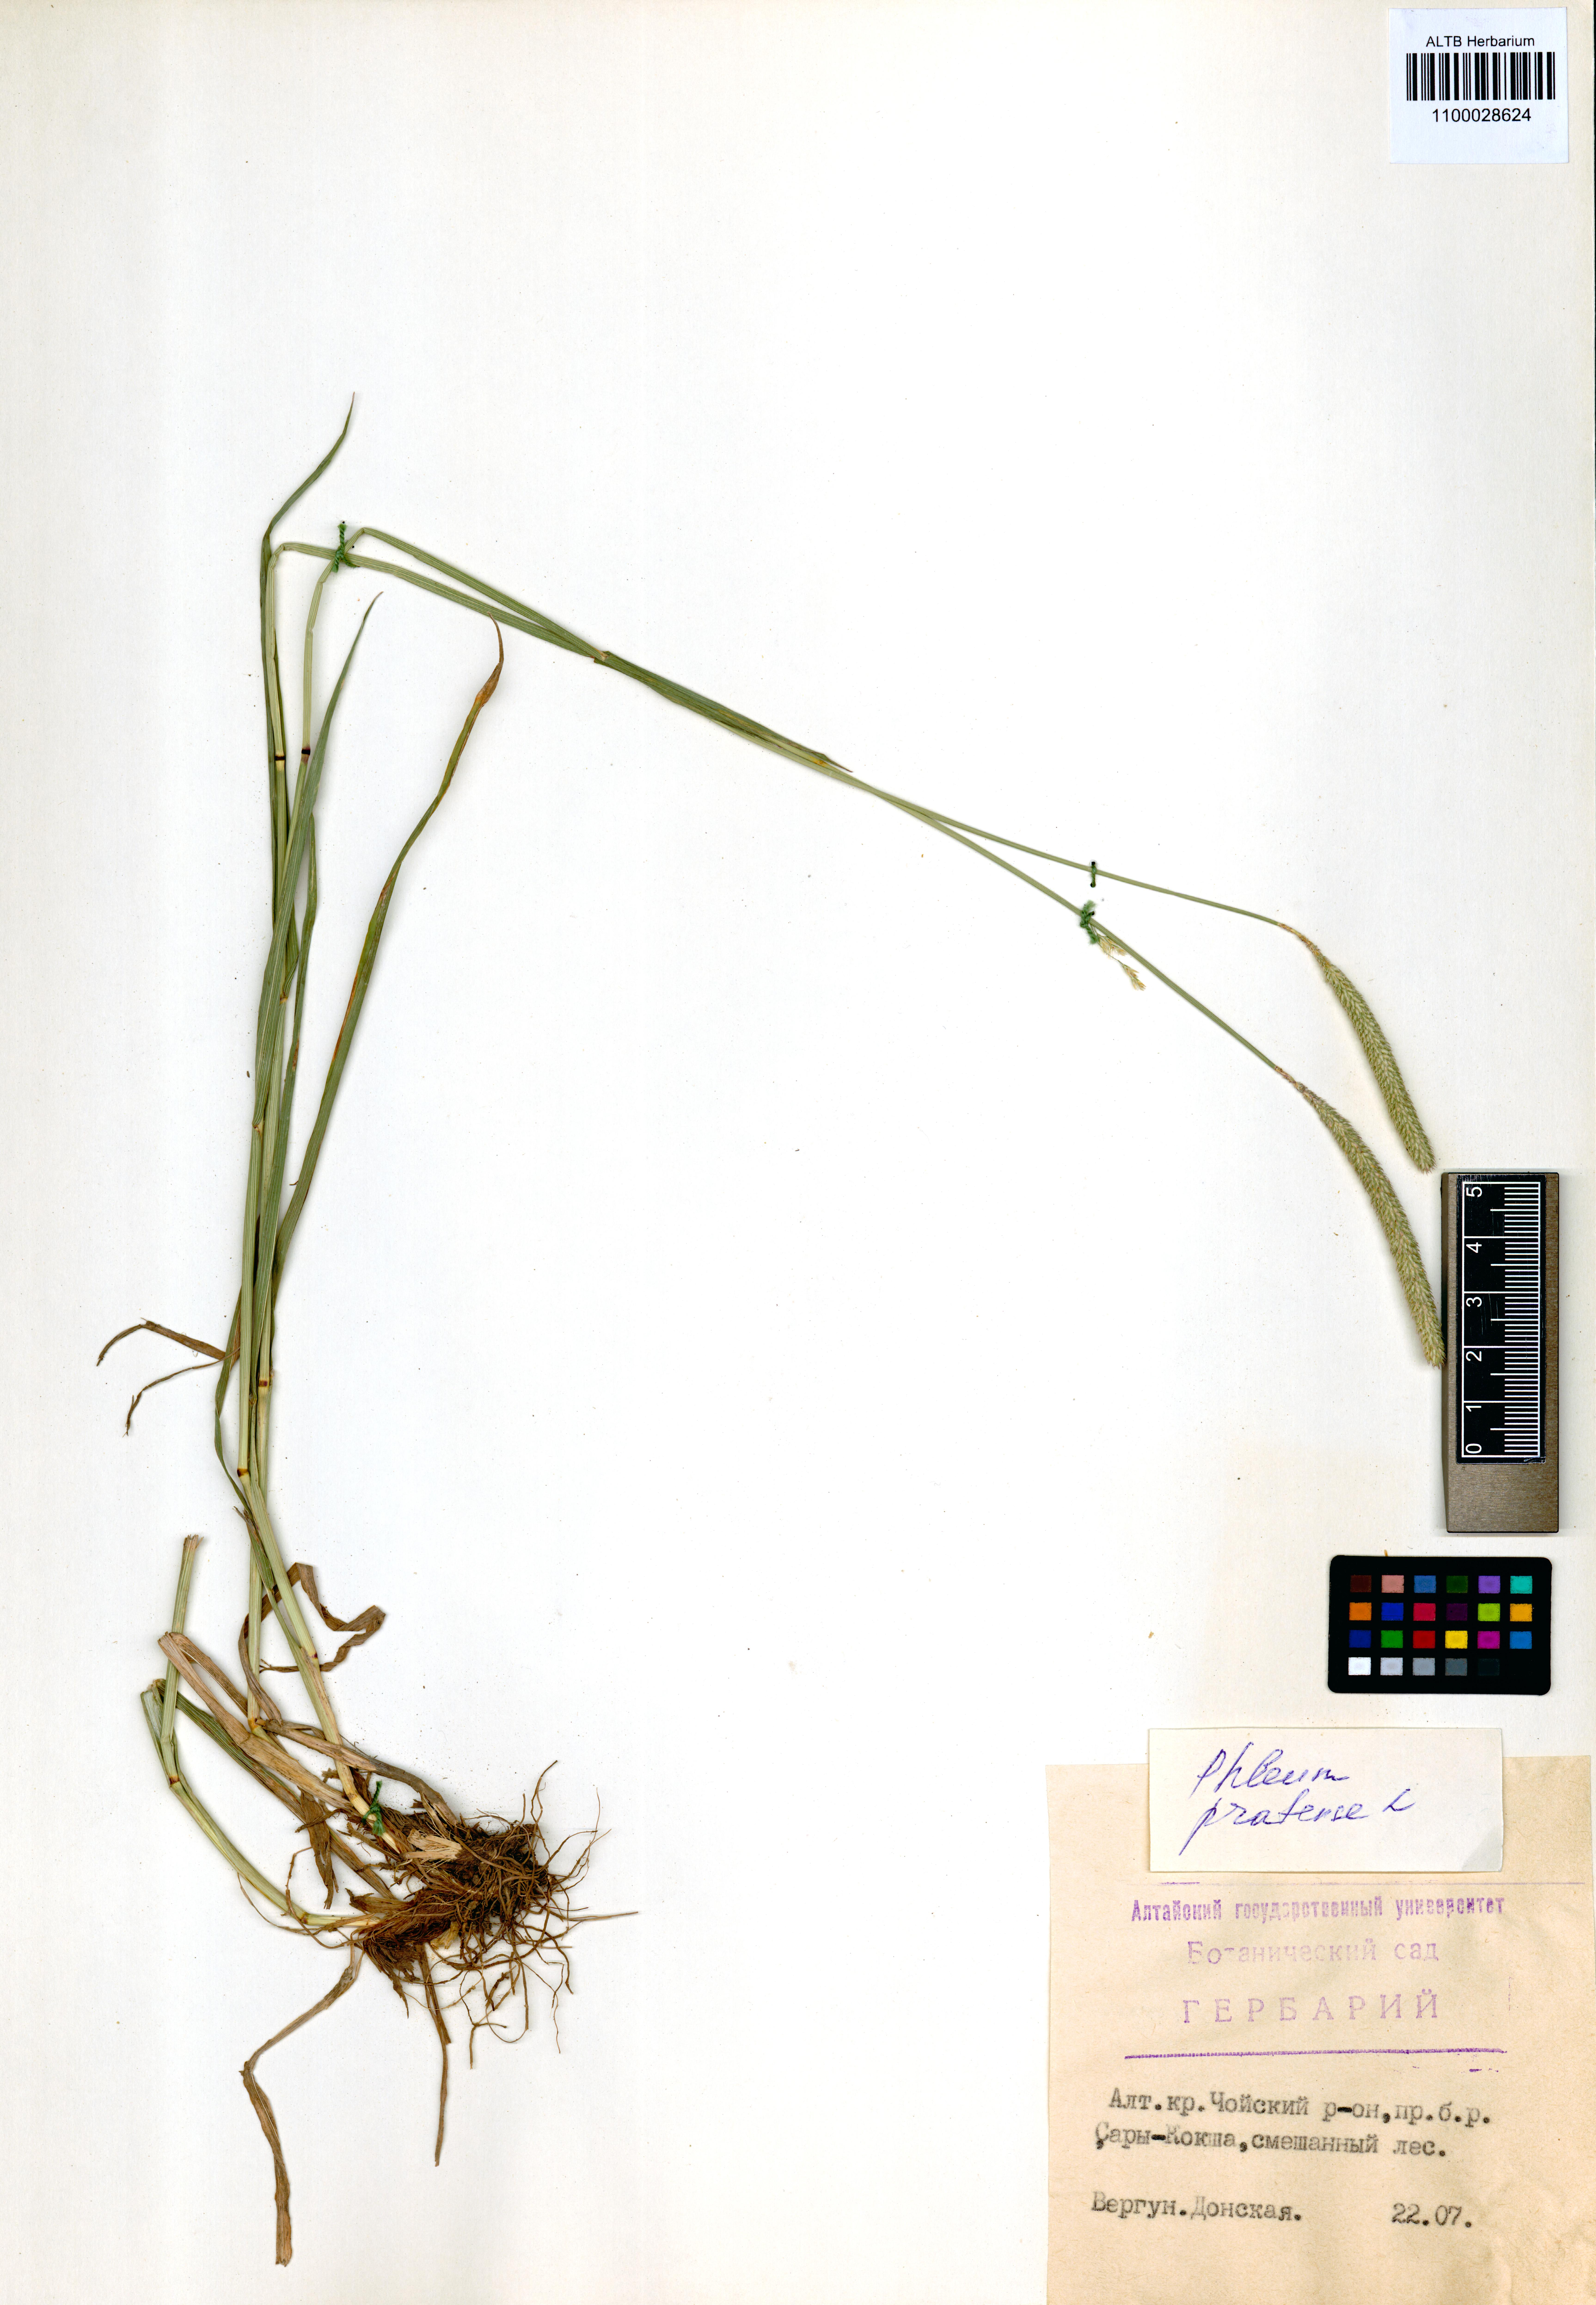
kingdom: Plantae
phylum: Tracheophyta
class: Liliopsida
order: Poales
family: Poaceae
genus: Phleum
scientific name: Phleum pratense
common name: Timothy grass
